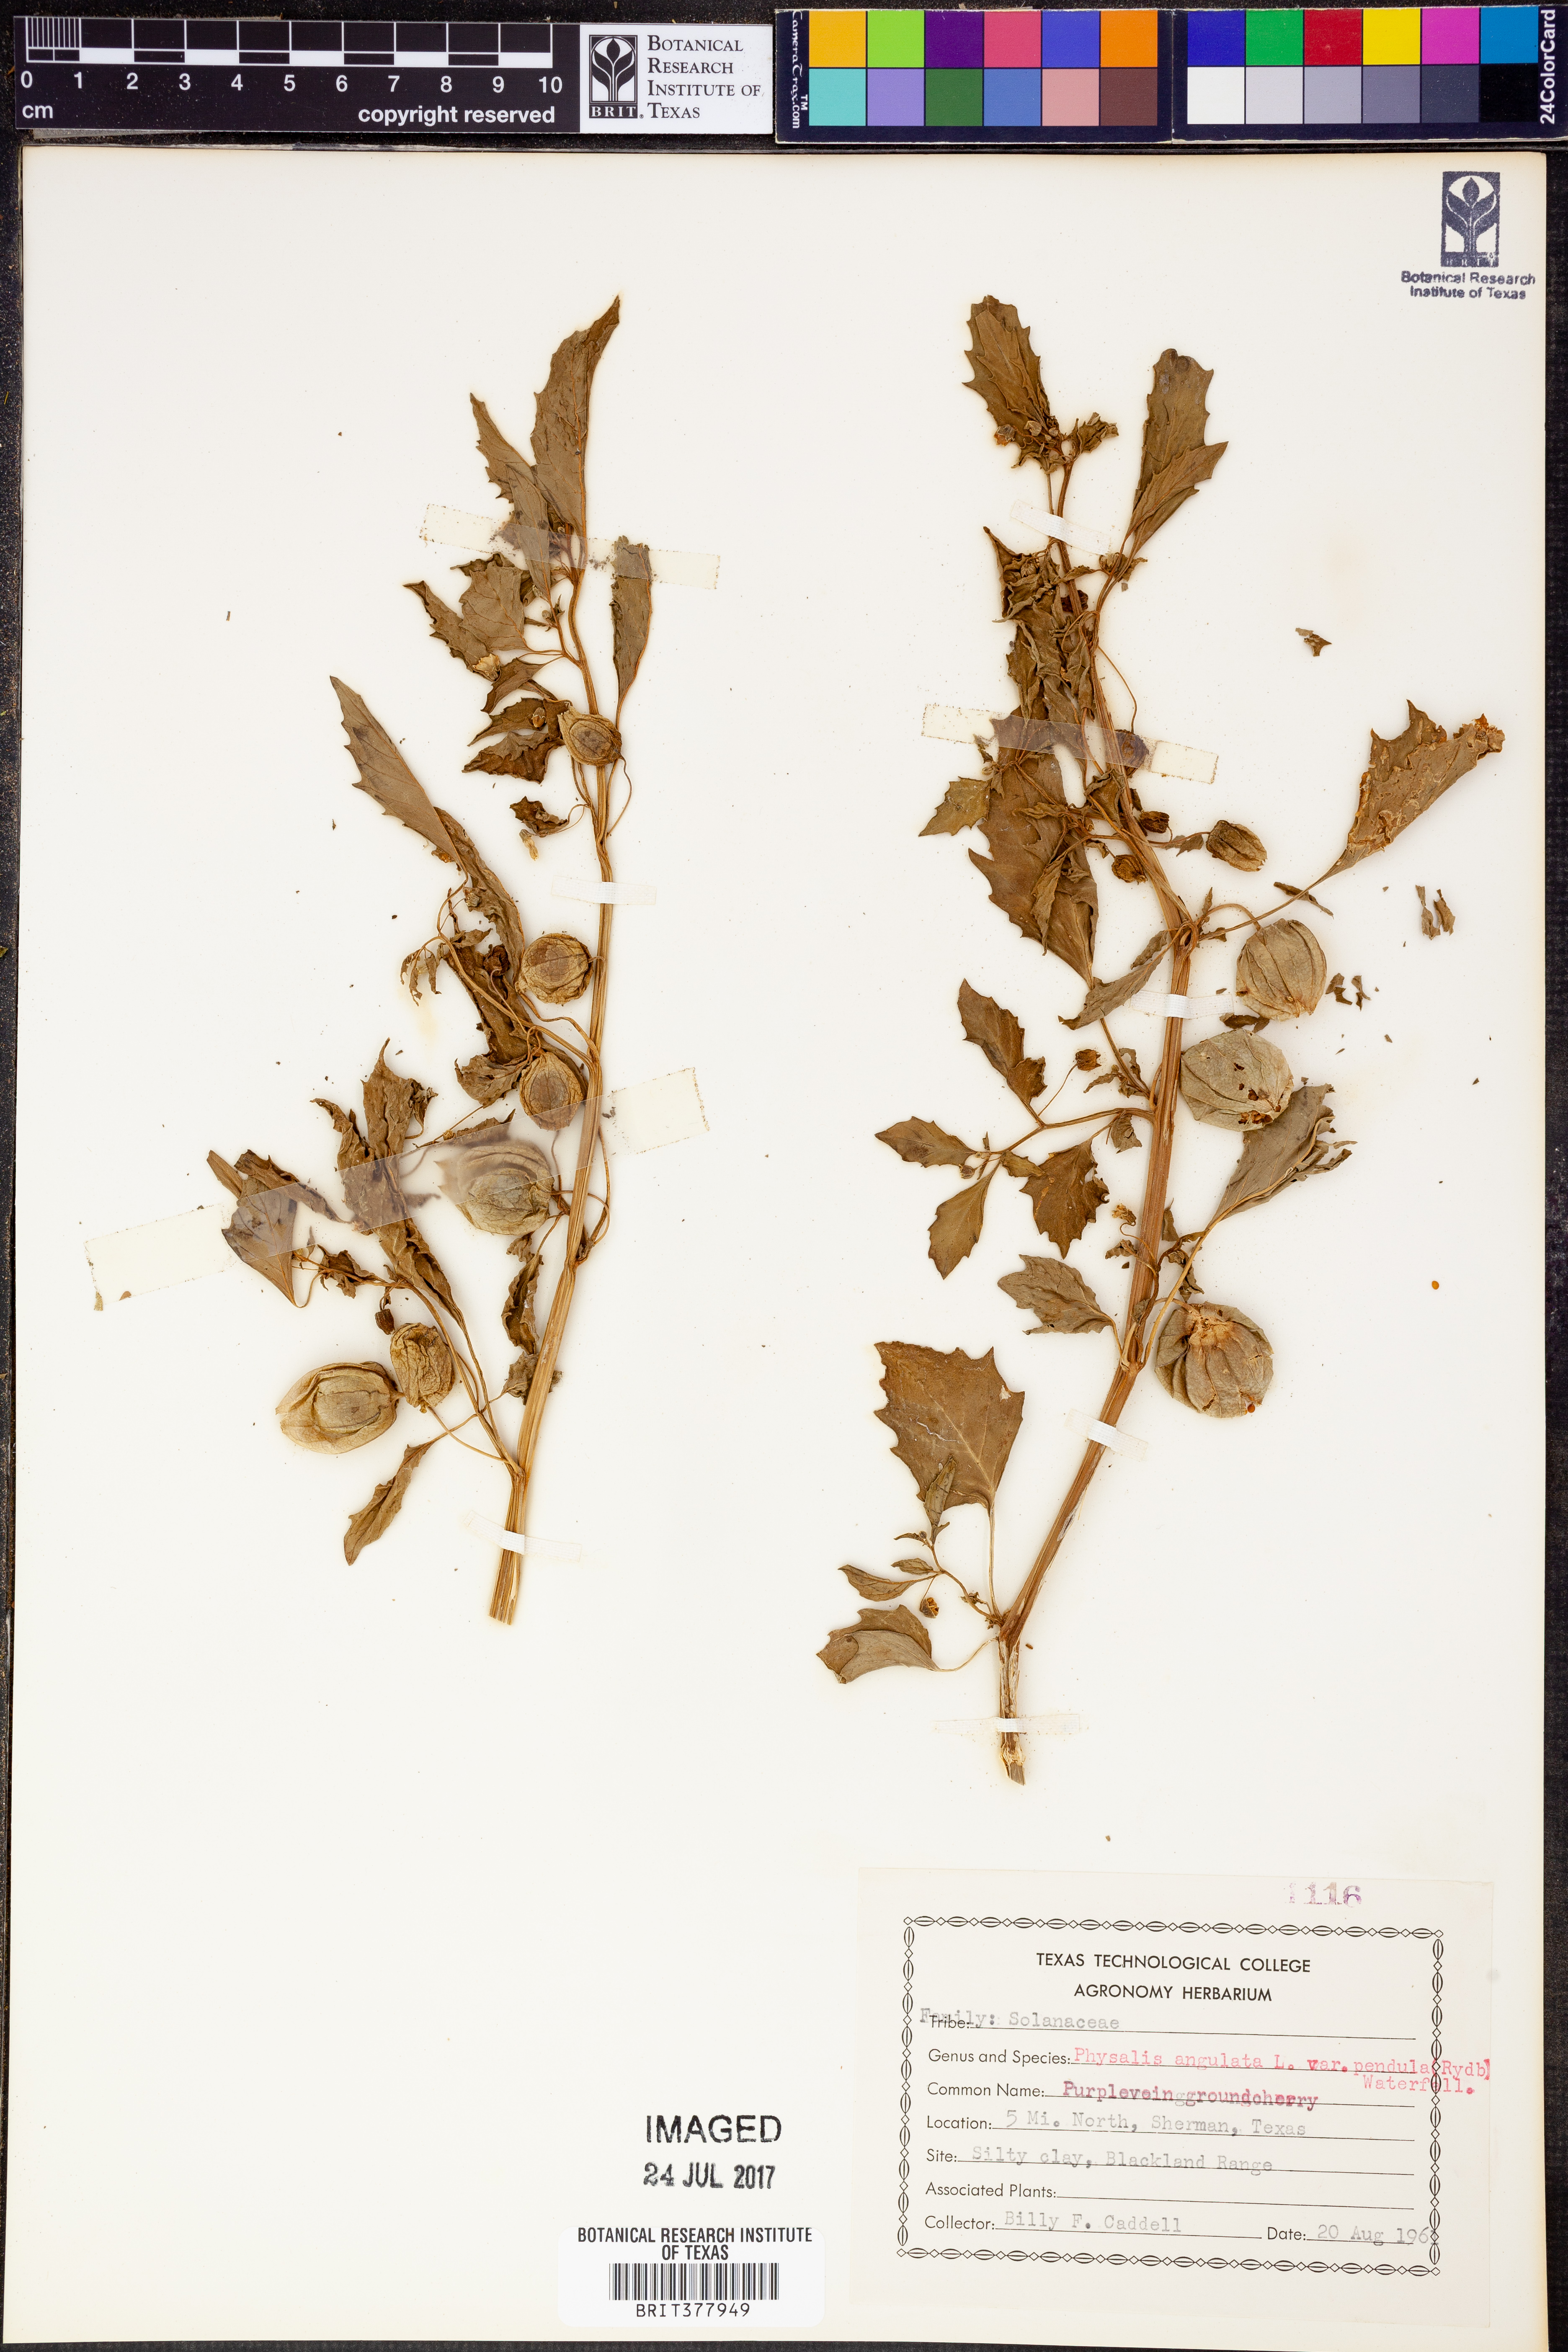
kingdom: Plantae
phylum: Tracheophyta
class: Magnoliopsida
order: Solanales
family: Solanaceae
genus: Physalis
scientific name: Physalis angulata
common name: Angular winter-cherry
